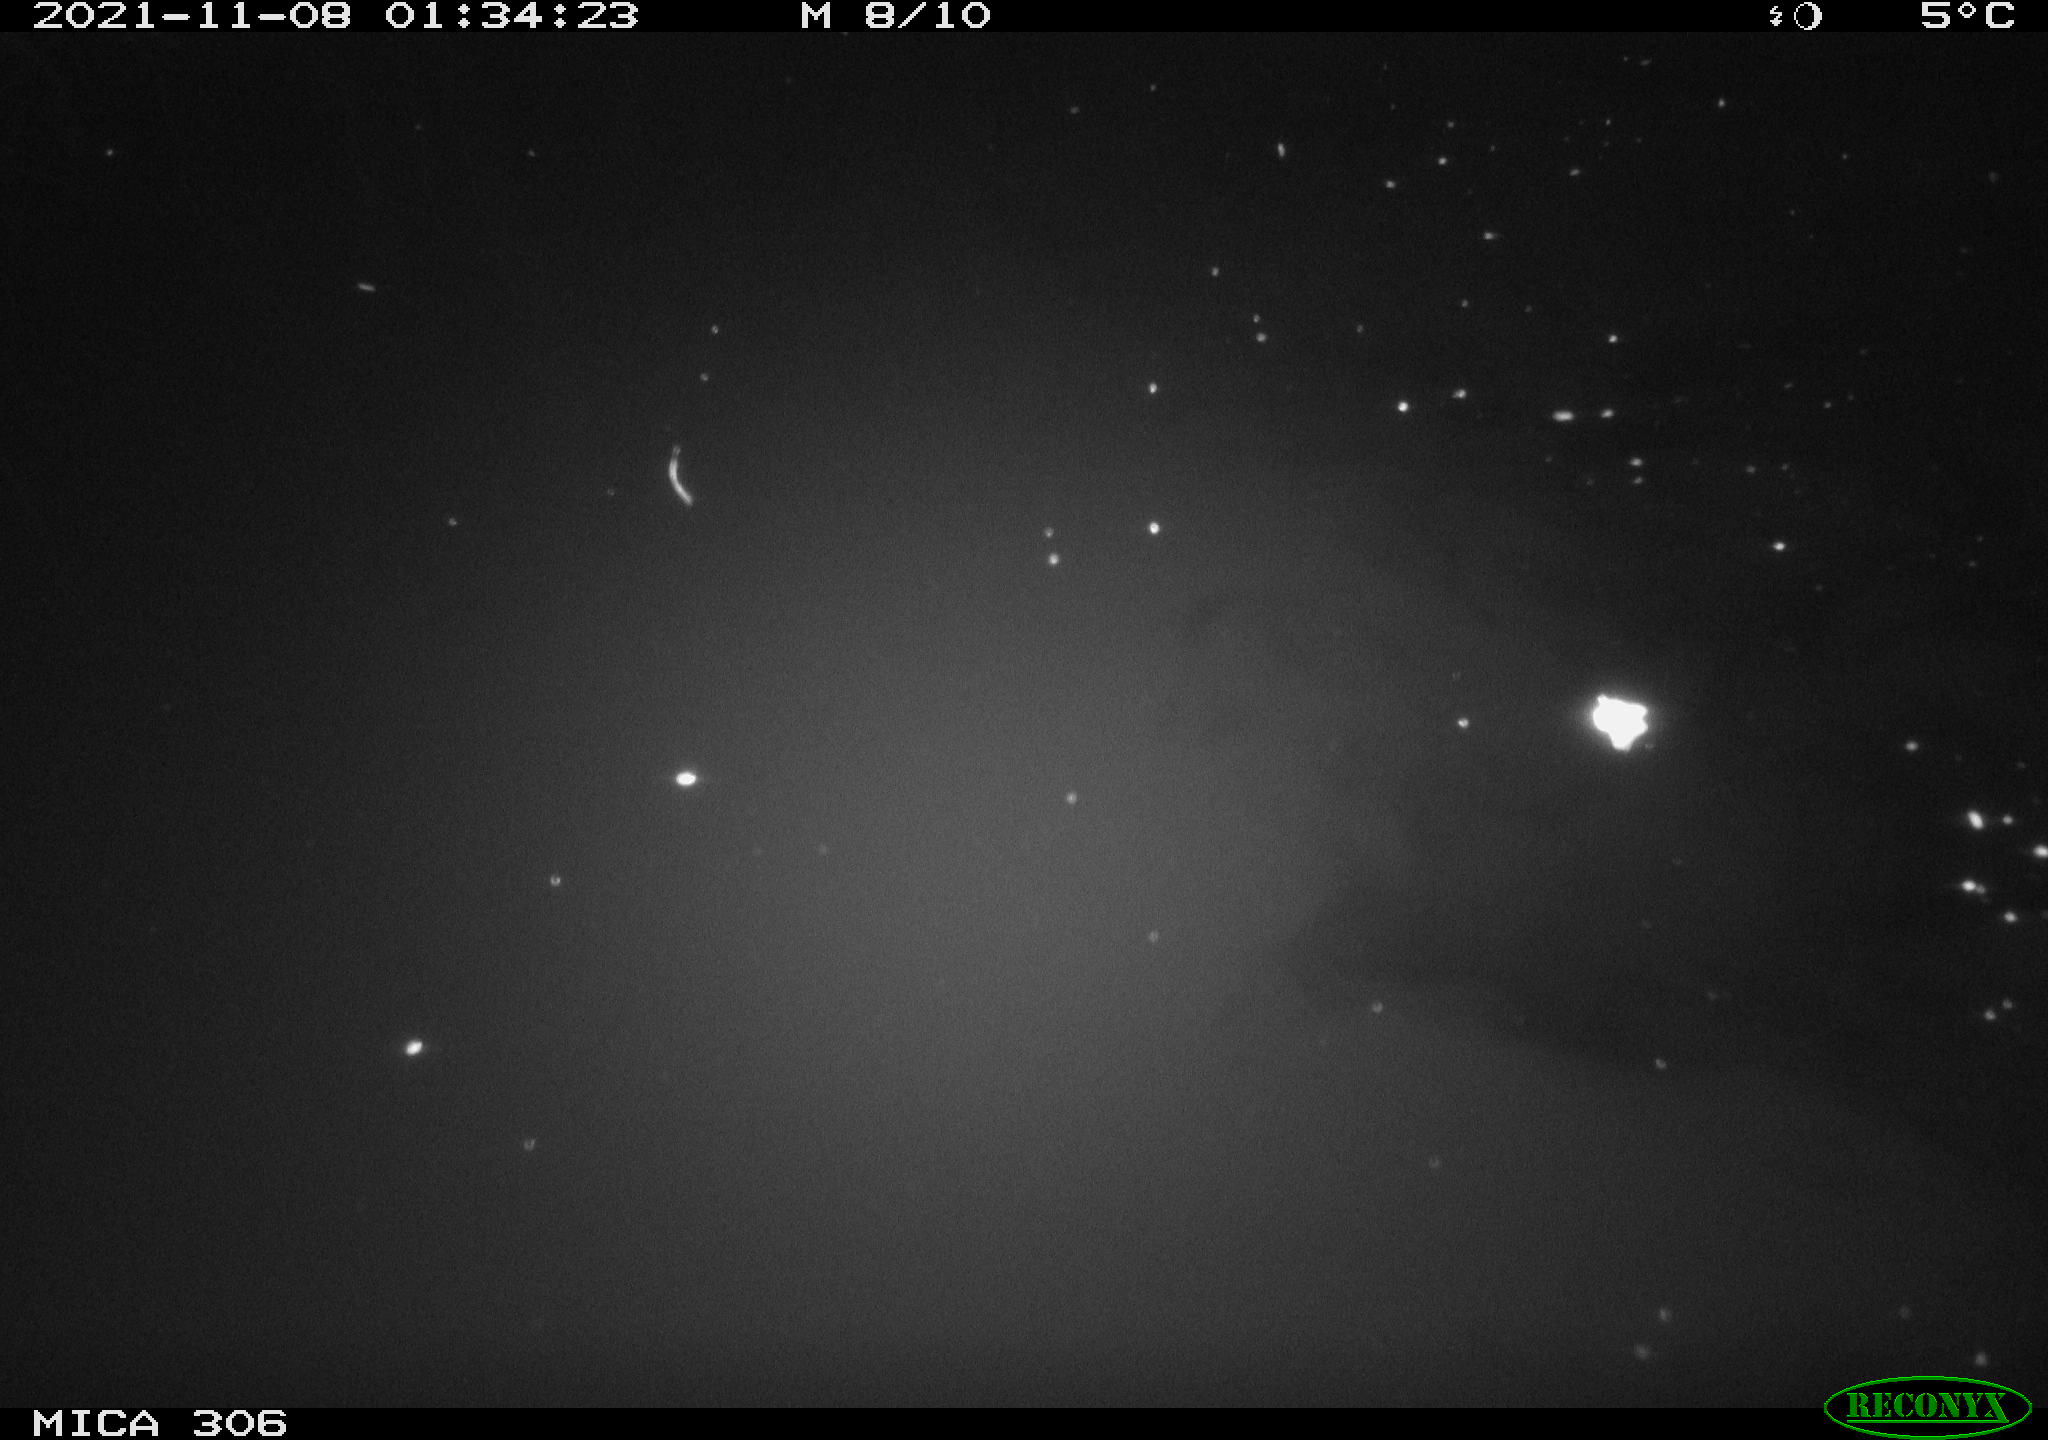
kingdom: Animalia
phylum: Chordata
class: Aves
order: Anseriformes
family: Anatidae
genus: Anas
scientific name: Anas platyrhynchos
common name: Mallard
